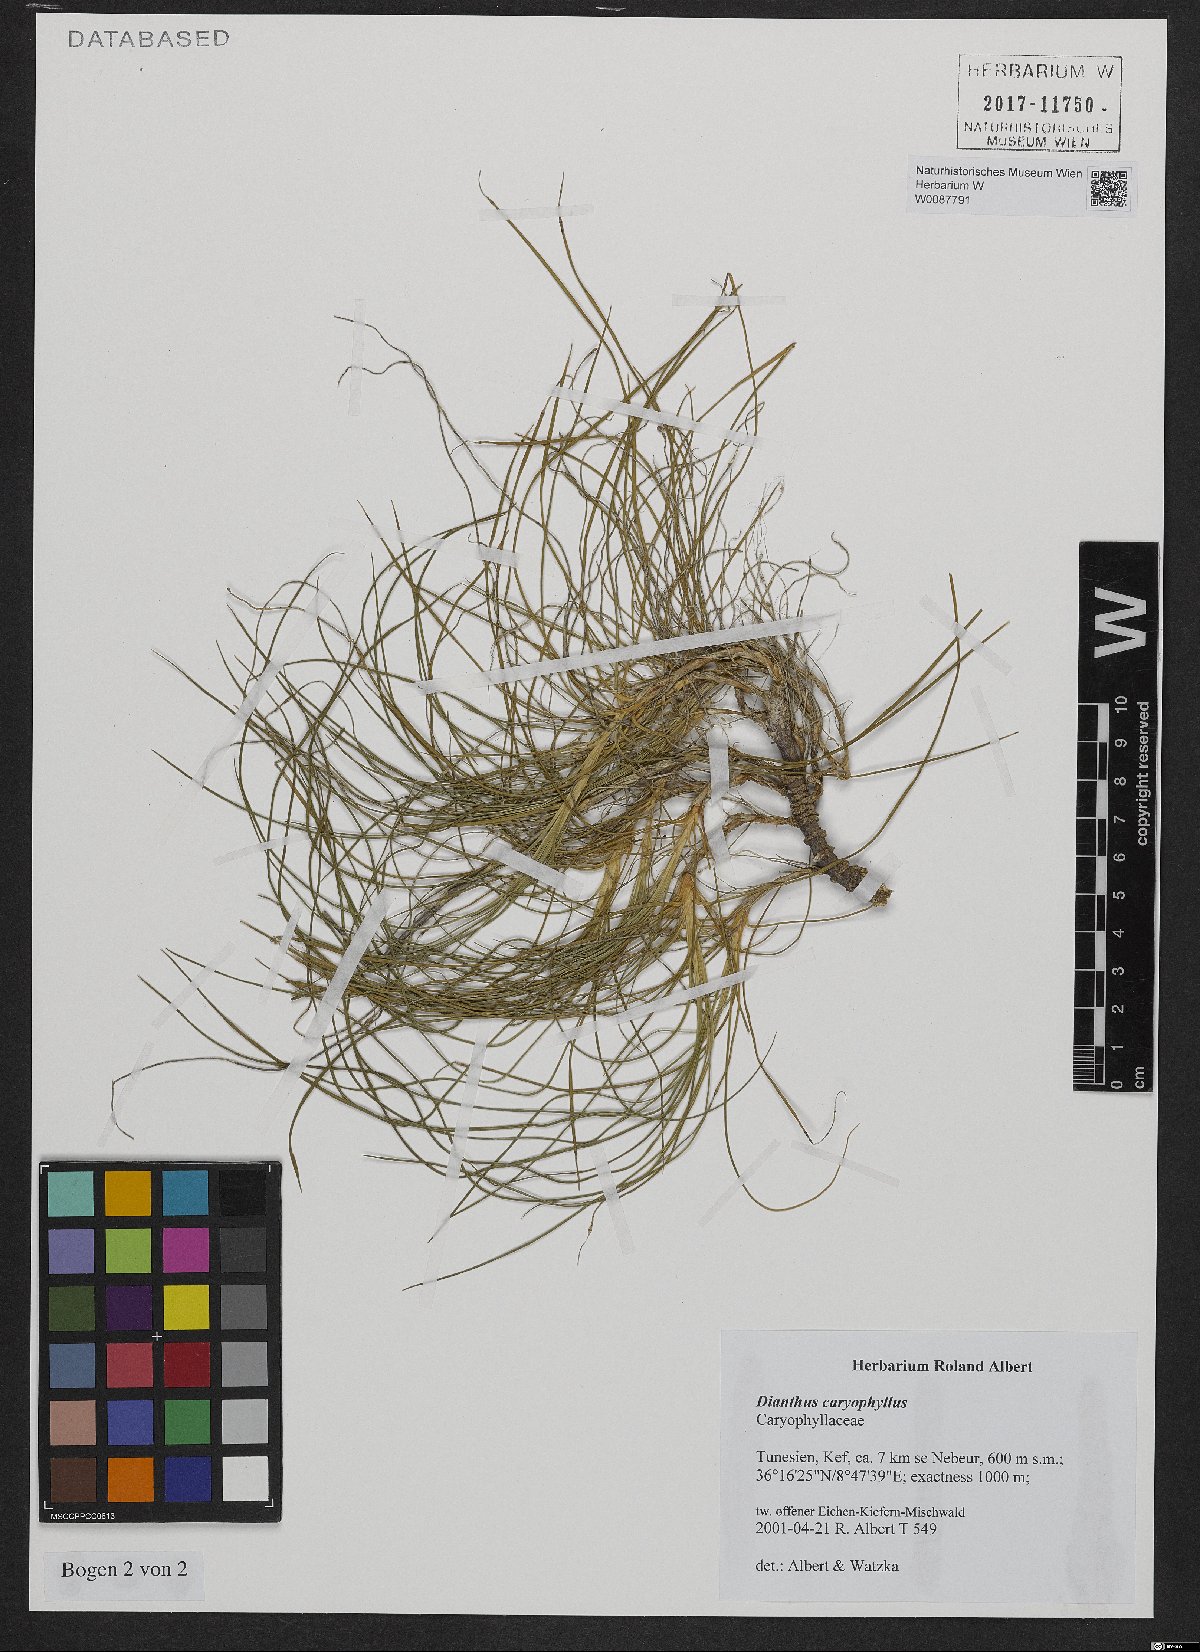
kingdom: Plantae
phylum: Tracheophyta
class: Magnoliopsida
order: Caryophyllales
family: Caryophyllaceae
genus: Dianthus
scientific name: Dianthus caryophyllus
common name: Clove pink
